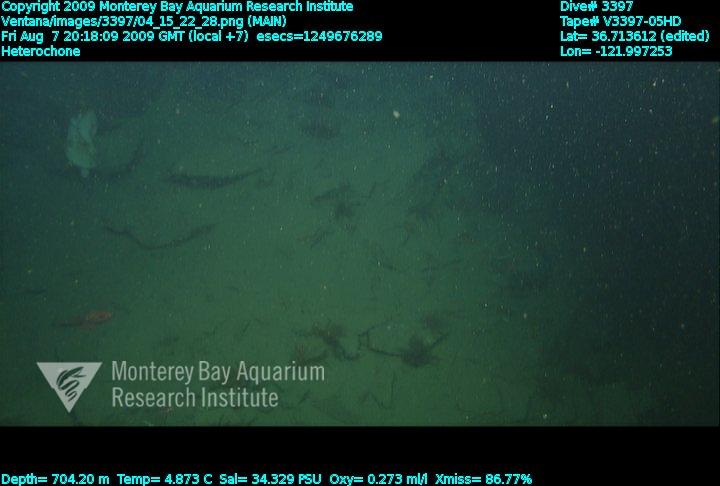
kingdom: Animalia
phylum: Porifera
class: Hexactinellida
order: Sceptrulophora
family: Aphrocallistidae
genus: Heterochone
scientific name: Heterochone
